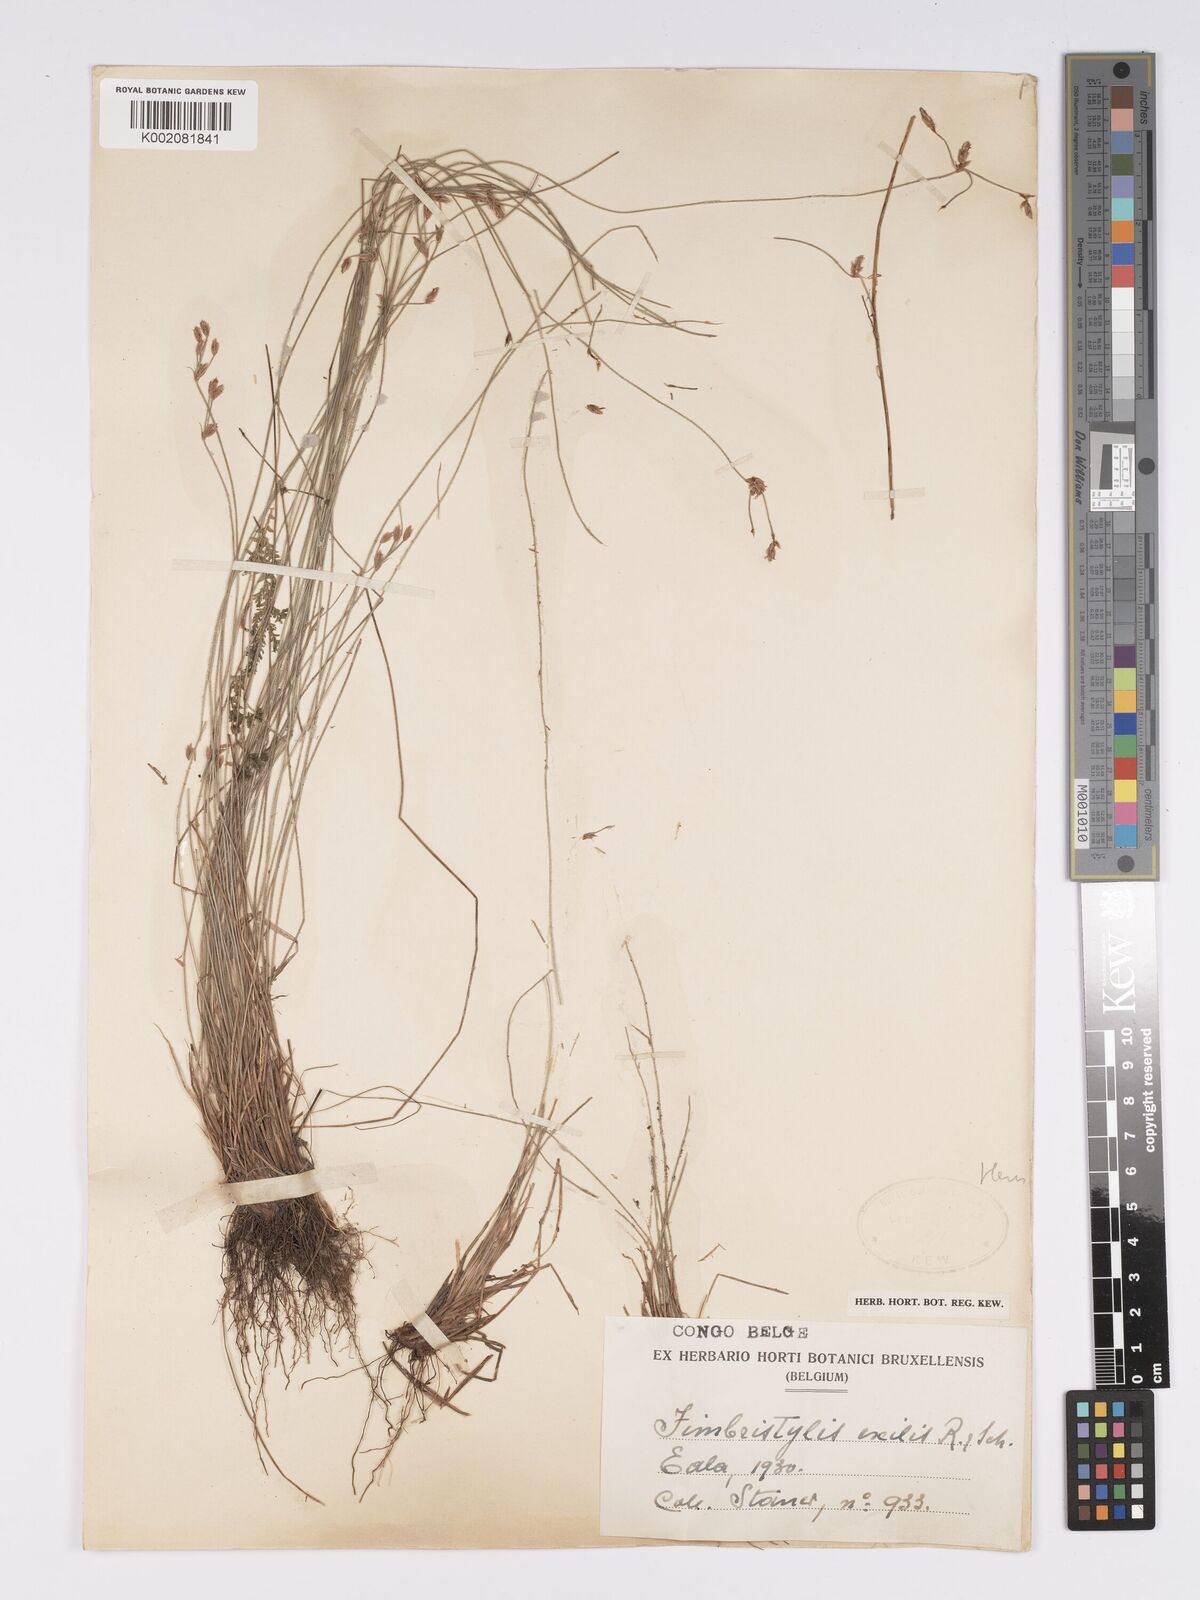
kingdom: Plantae
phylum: Tracheophyta
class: Liliopsida
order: Poales
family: Cyperaceae
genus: Bulbostylis
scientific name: Bulbostylis hispidula
